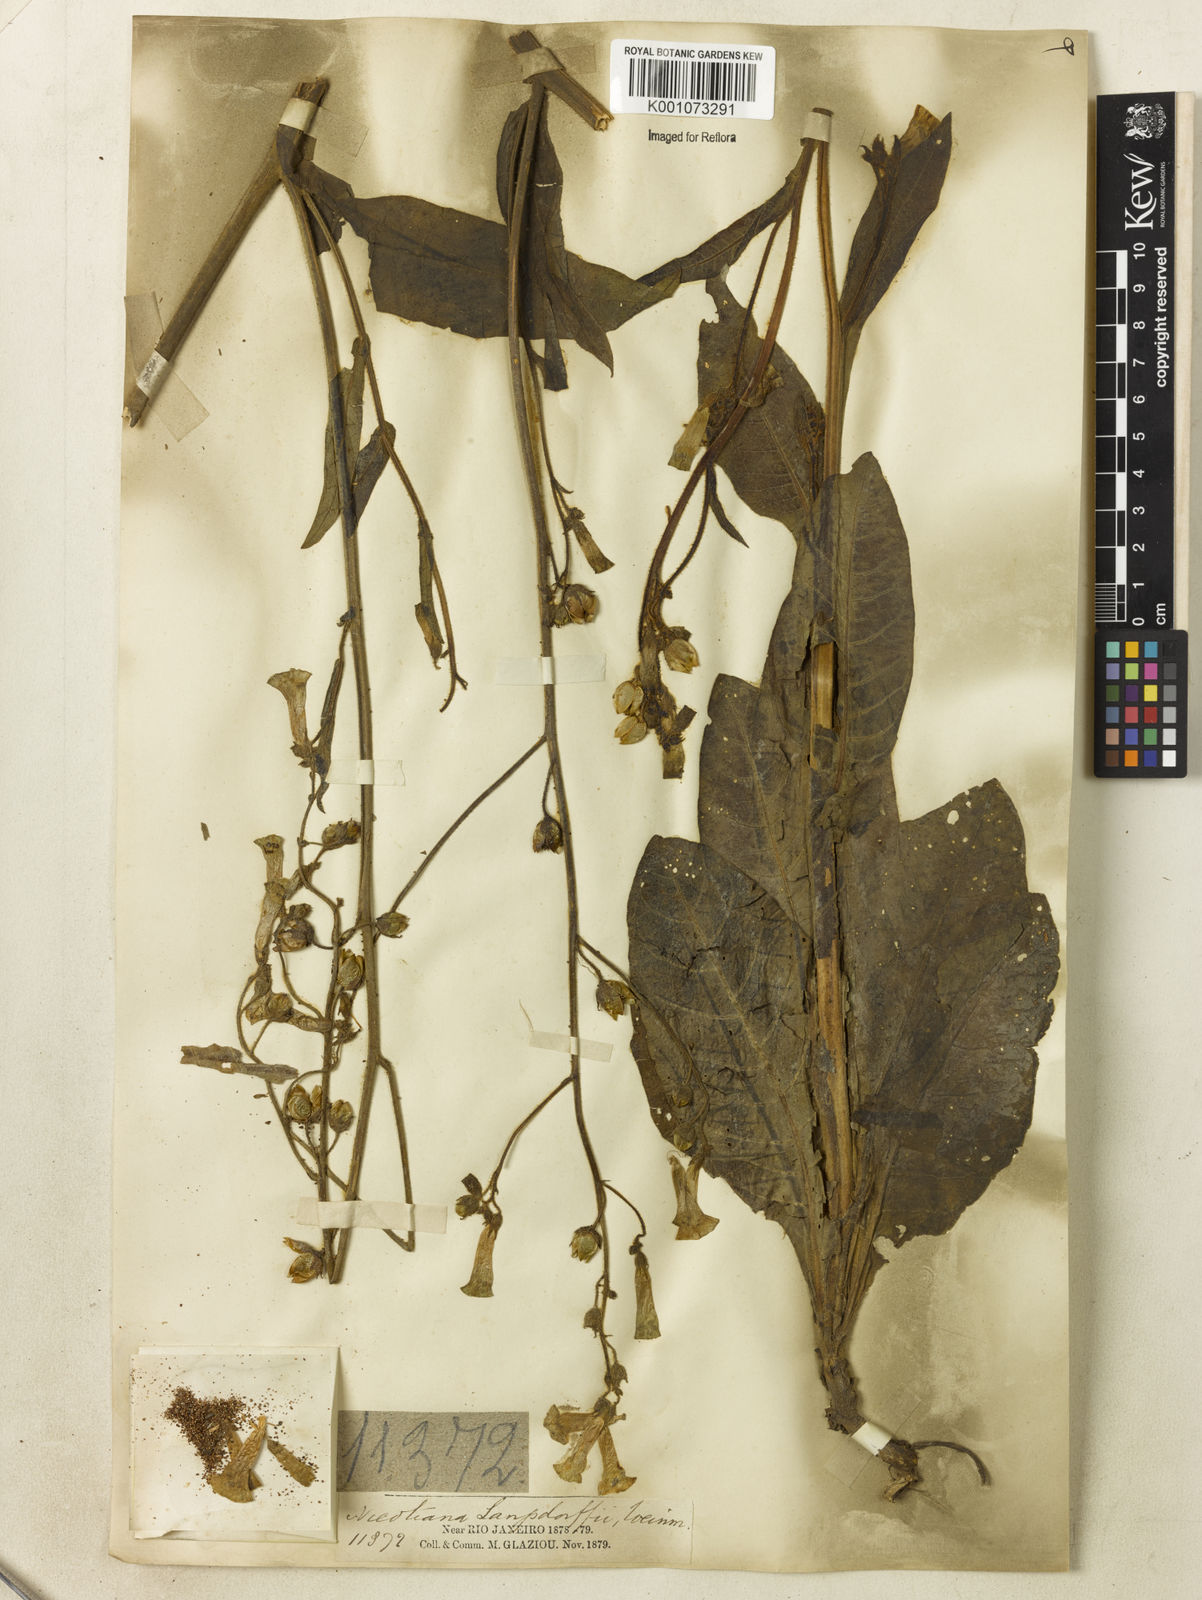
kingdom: Plantae
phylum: Tracheophyta
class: Magnoliopsida
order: Solanales
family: Solanaceae
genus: Nicotiana
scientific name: Nicotiana
